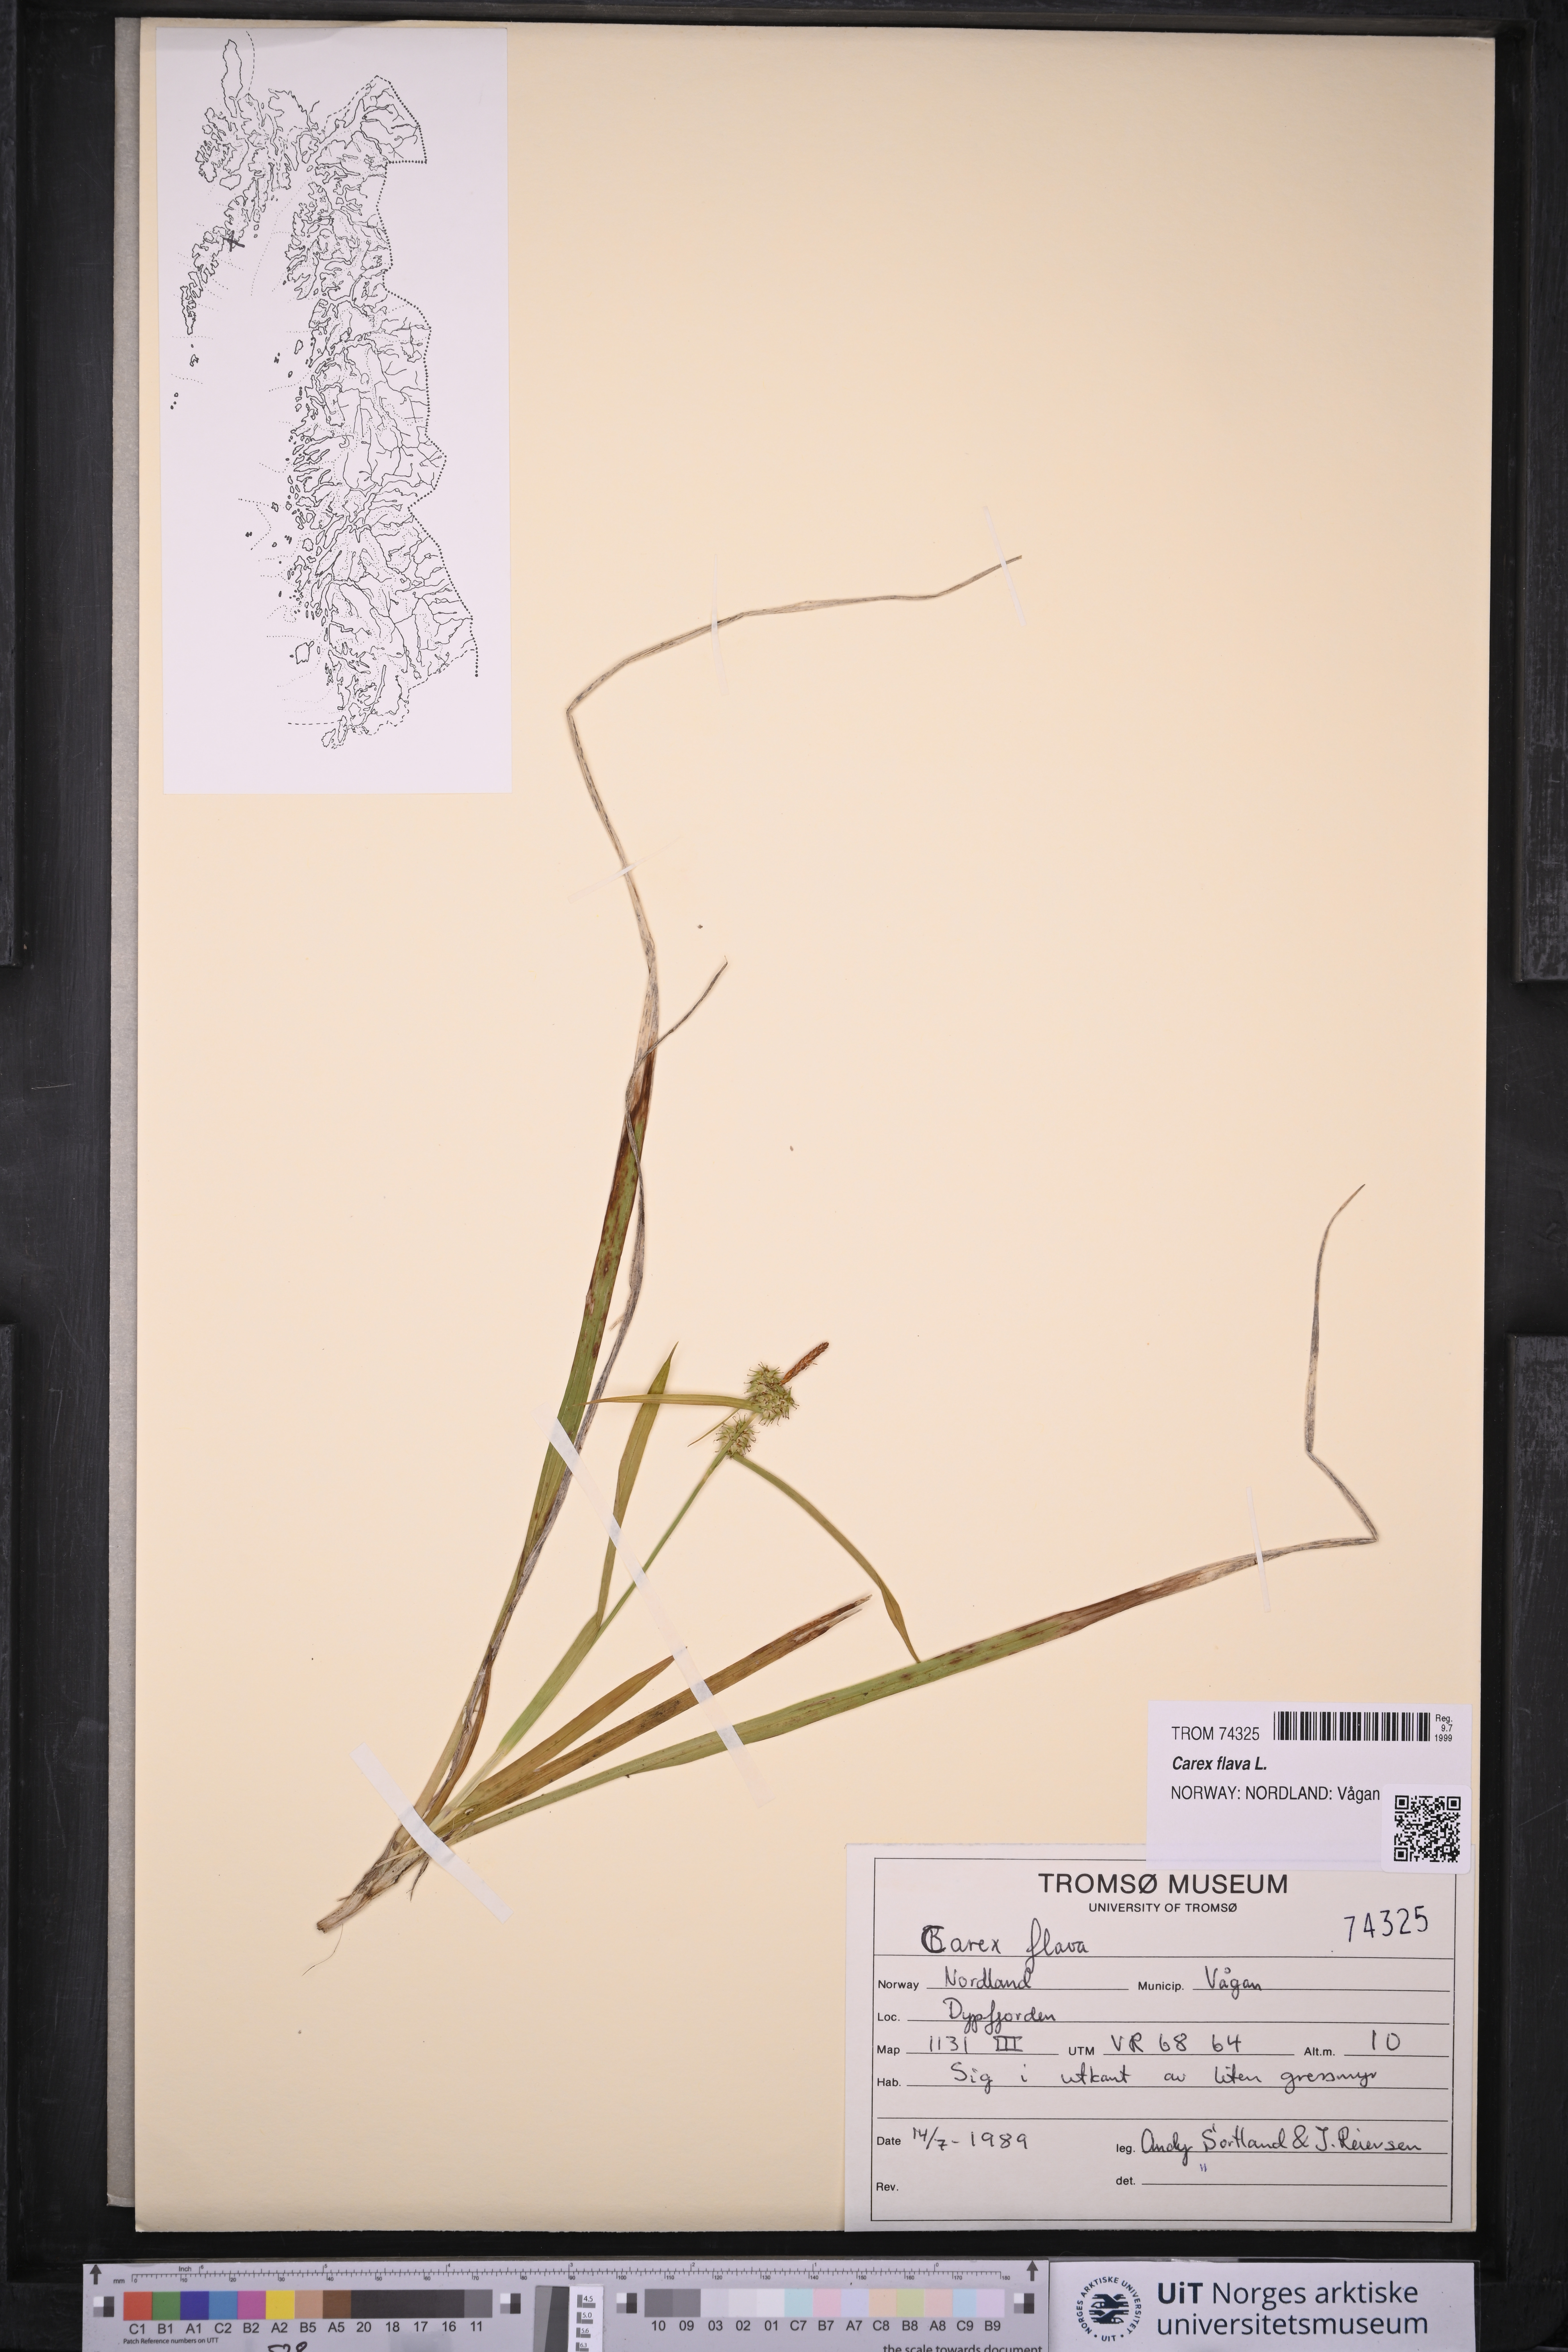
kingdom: Plantae
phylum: Tracheophyta
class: Liliopsida
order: Poales
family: Cyperaceae
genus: Carex
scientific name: Carex flava
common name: Large yellow-sedge
